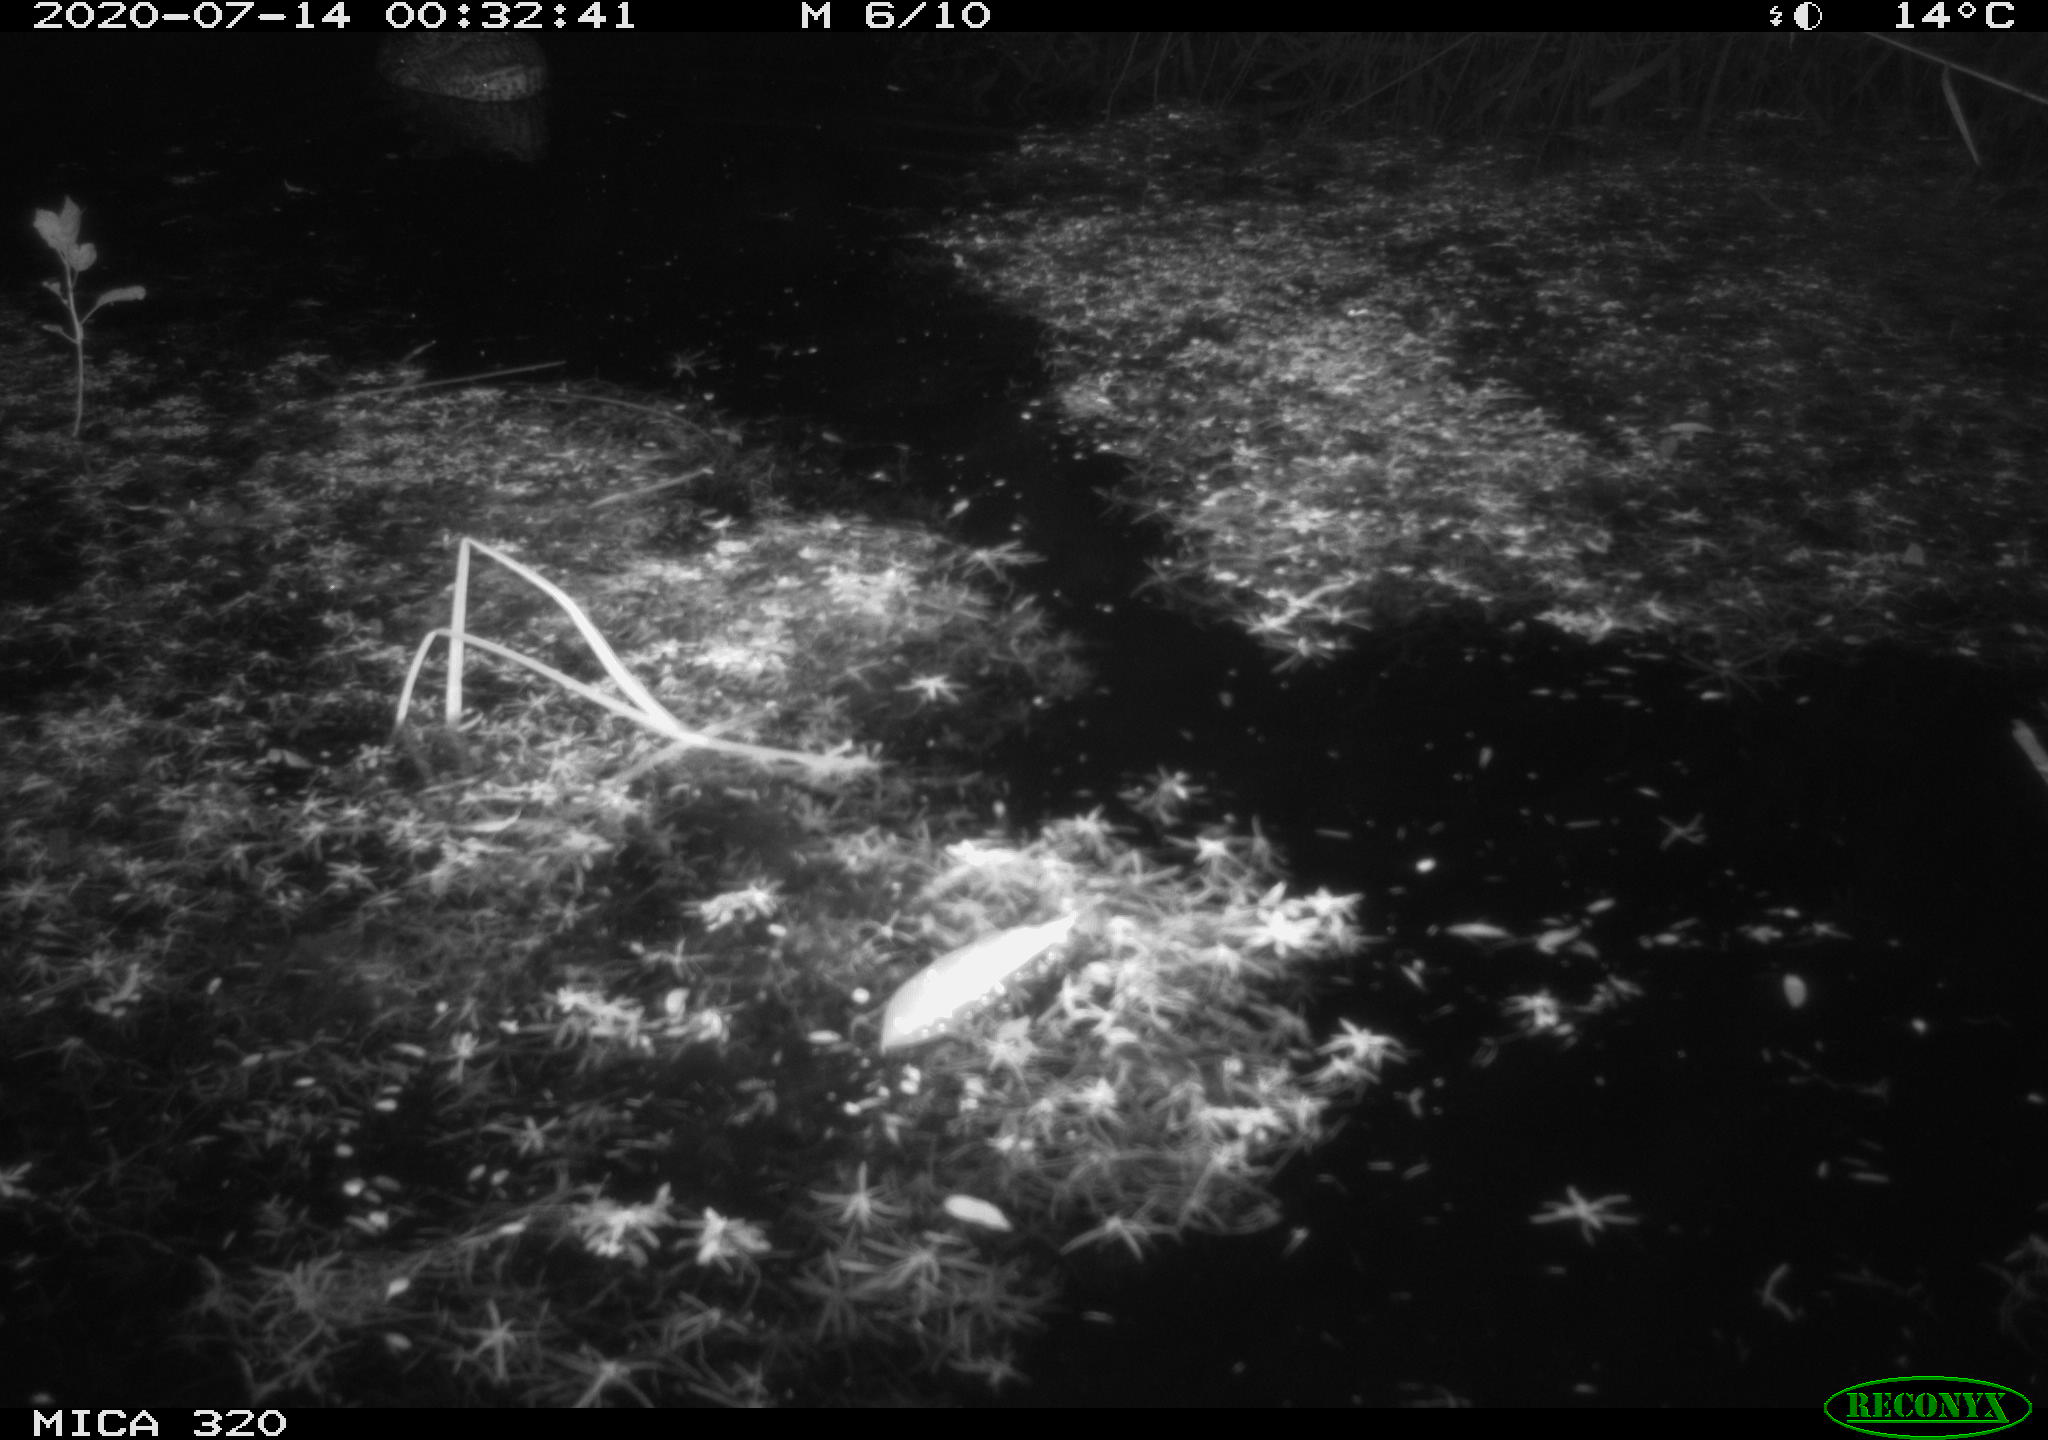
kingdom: Animalia
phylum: Chordata
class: Aves
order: Anseriformes
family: Anatidae
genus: Anas
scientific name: Anas platyrhynchos
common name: Mallard
